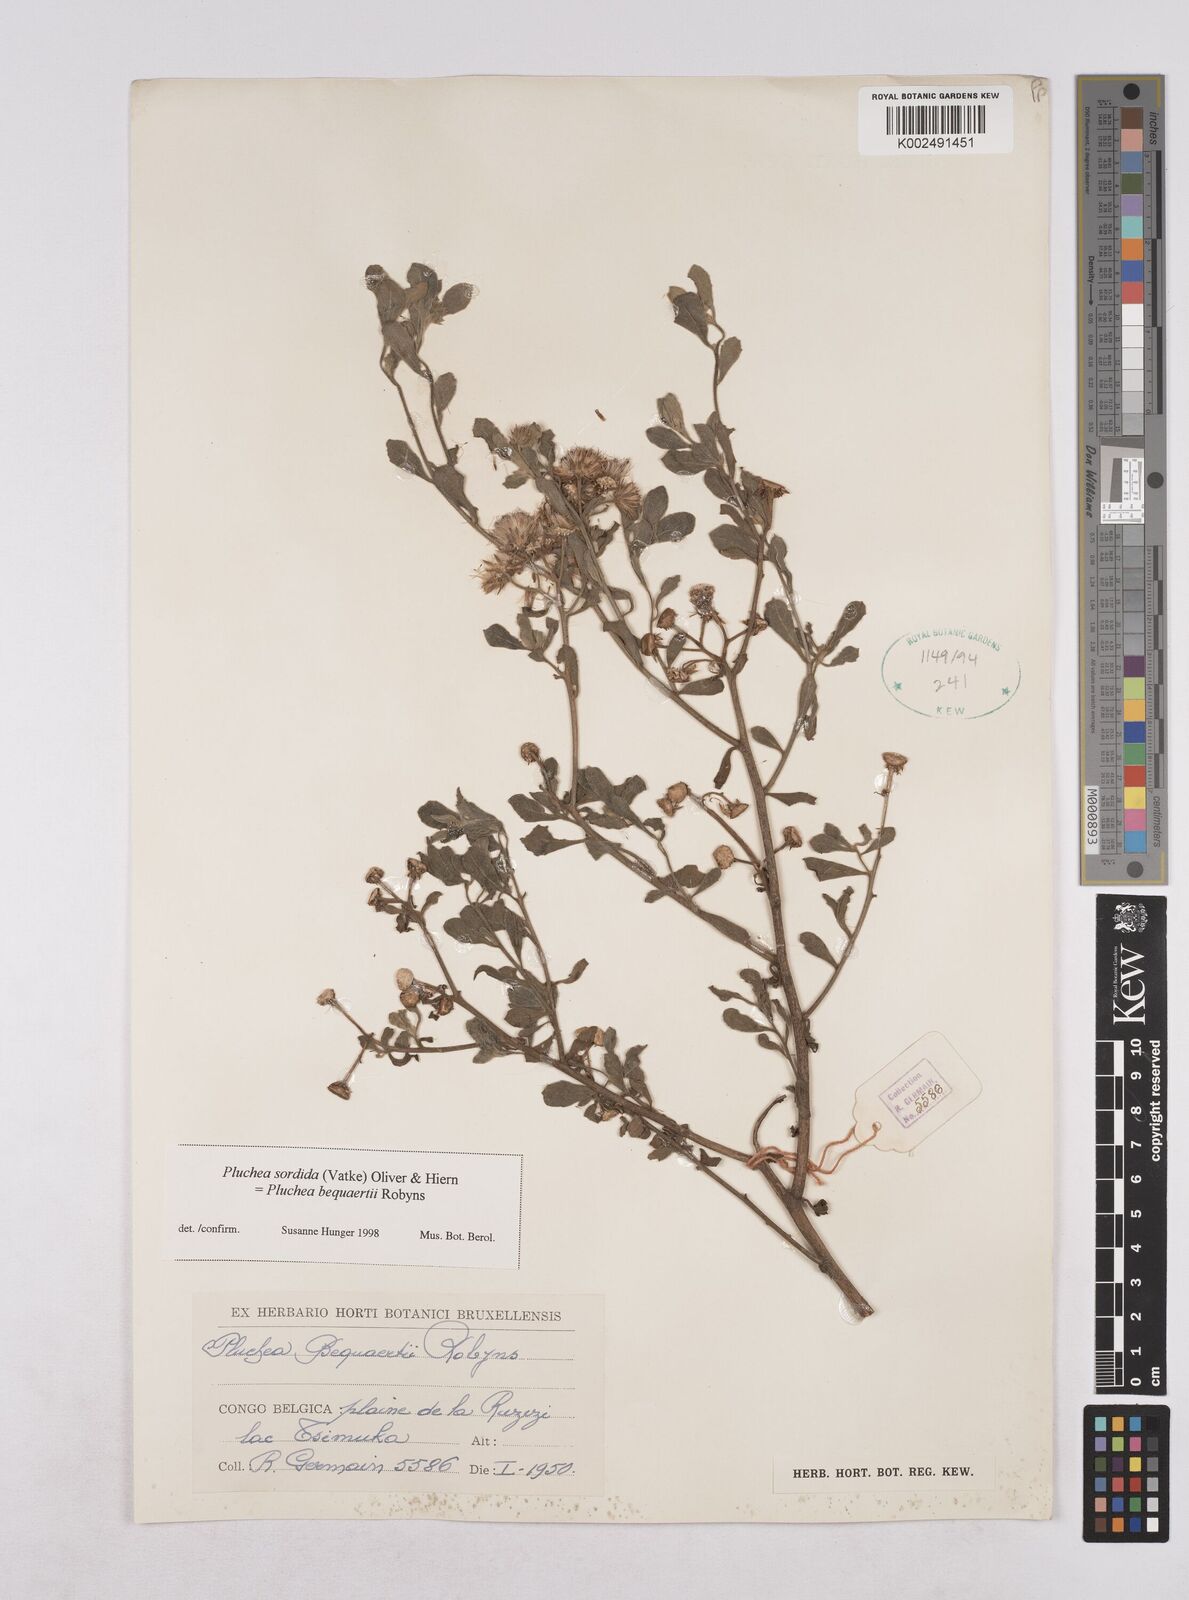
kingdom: Plantae
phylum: Tracheophyta
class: Magnoliopsida
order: Asterales
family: Asteraceae
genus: Pluchea
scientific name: Pluchea sordida
